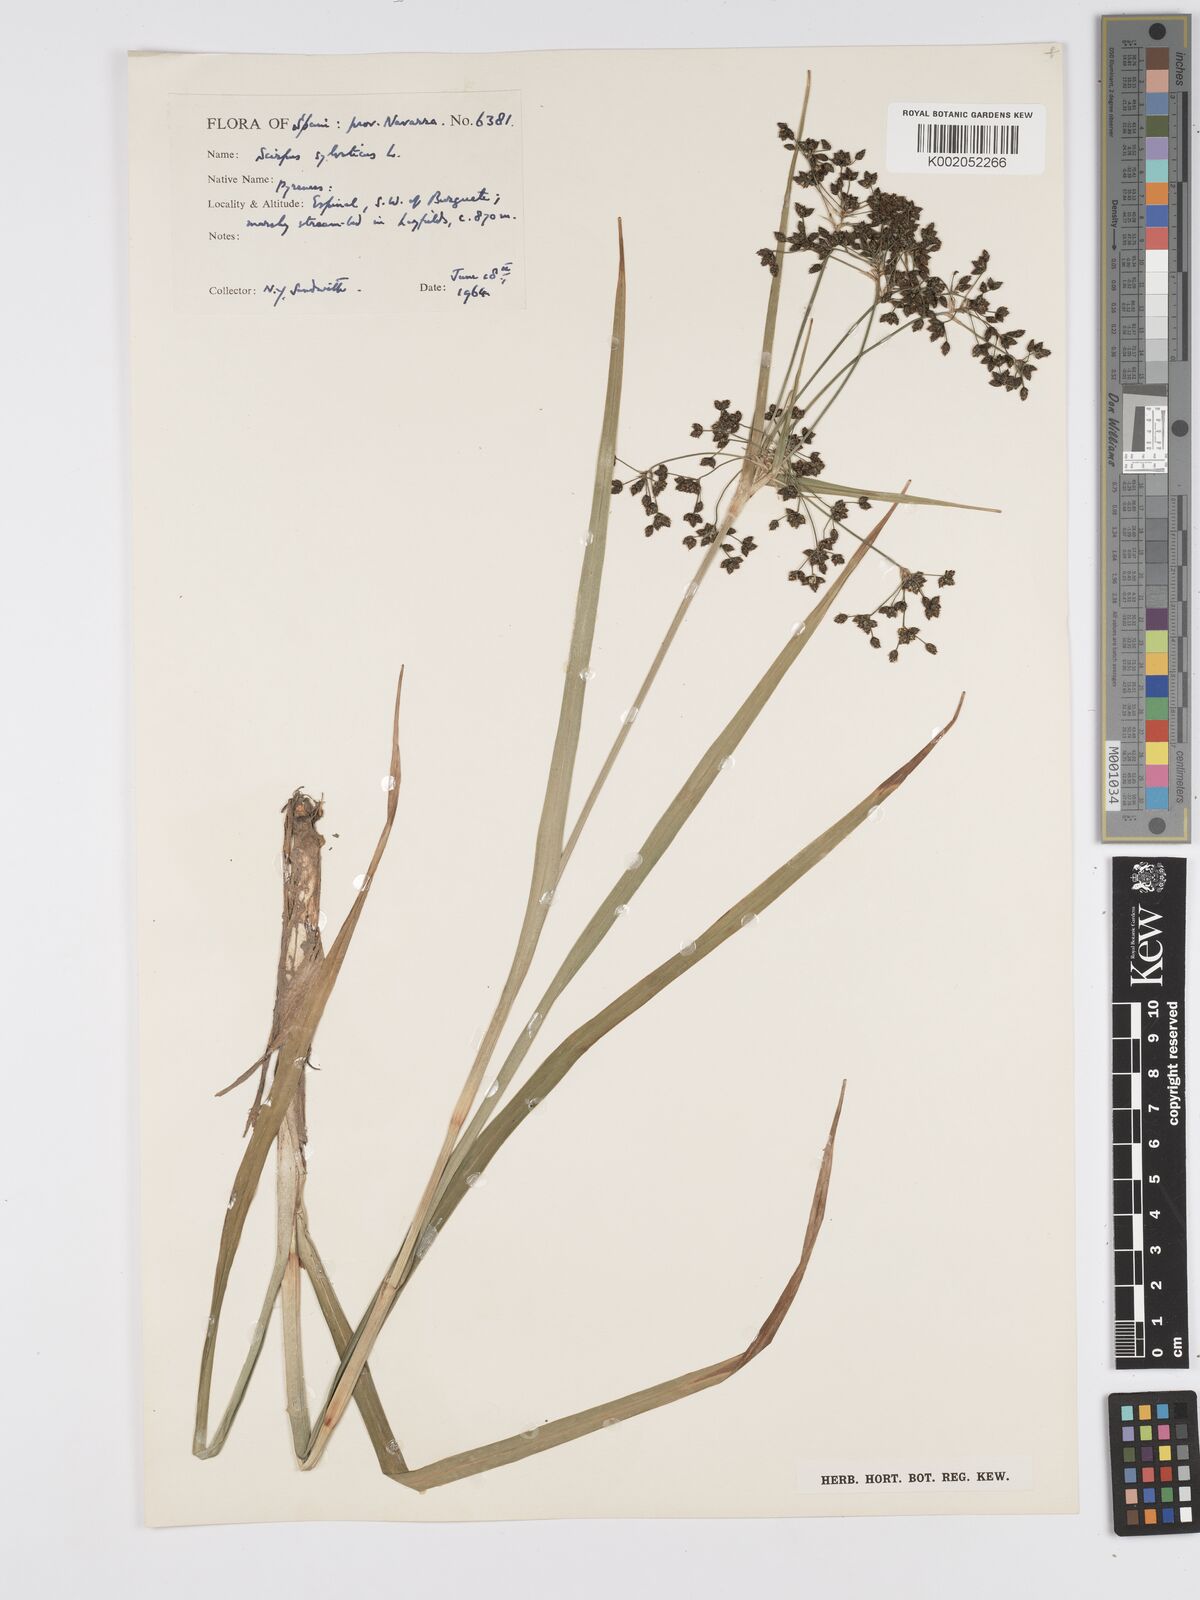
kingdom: Plantae
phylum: Tracheophyta
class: Liliopsida
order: Poales
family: Cyperaceae
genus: Scirpus
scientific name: Scirpus sylvaticus
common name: Wood club-rush
